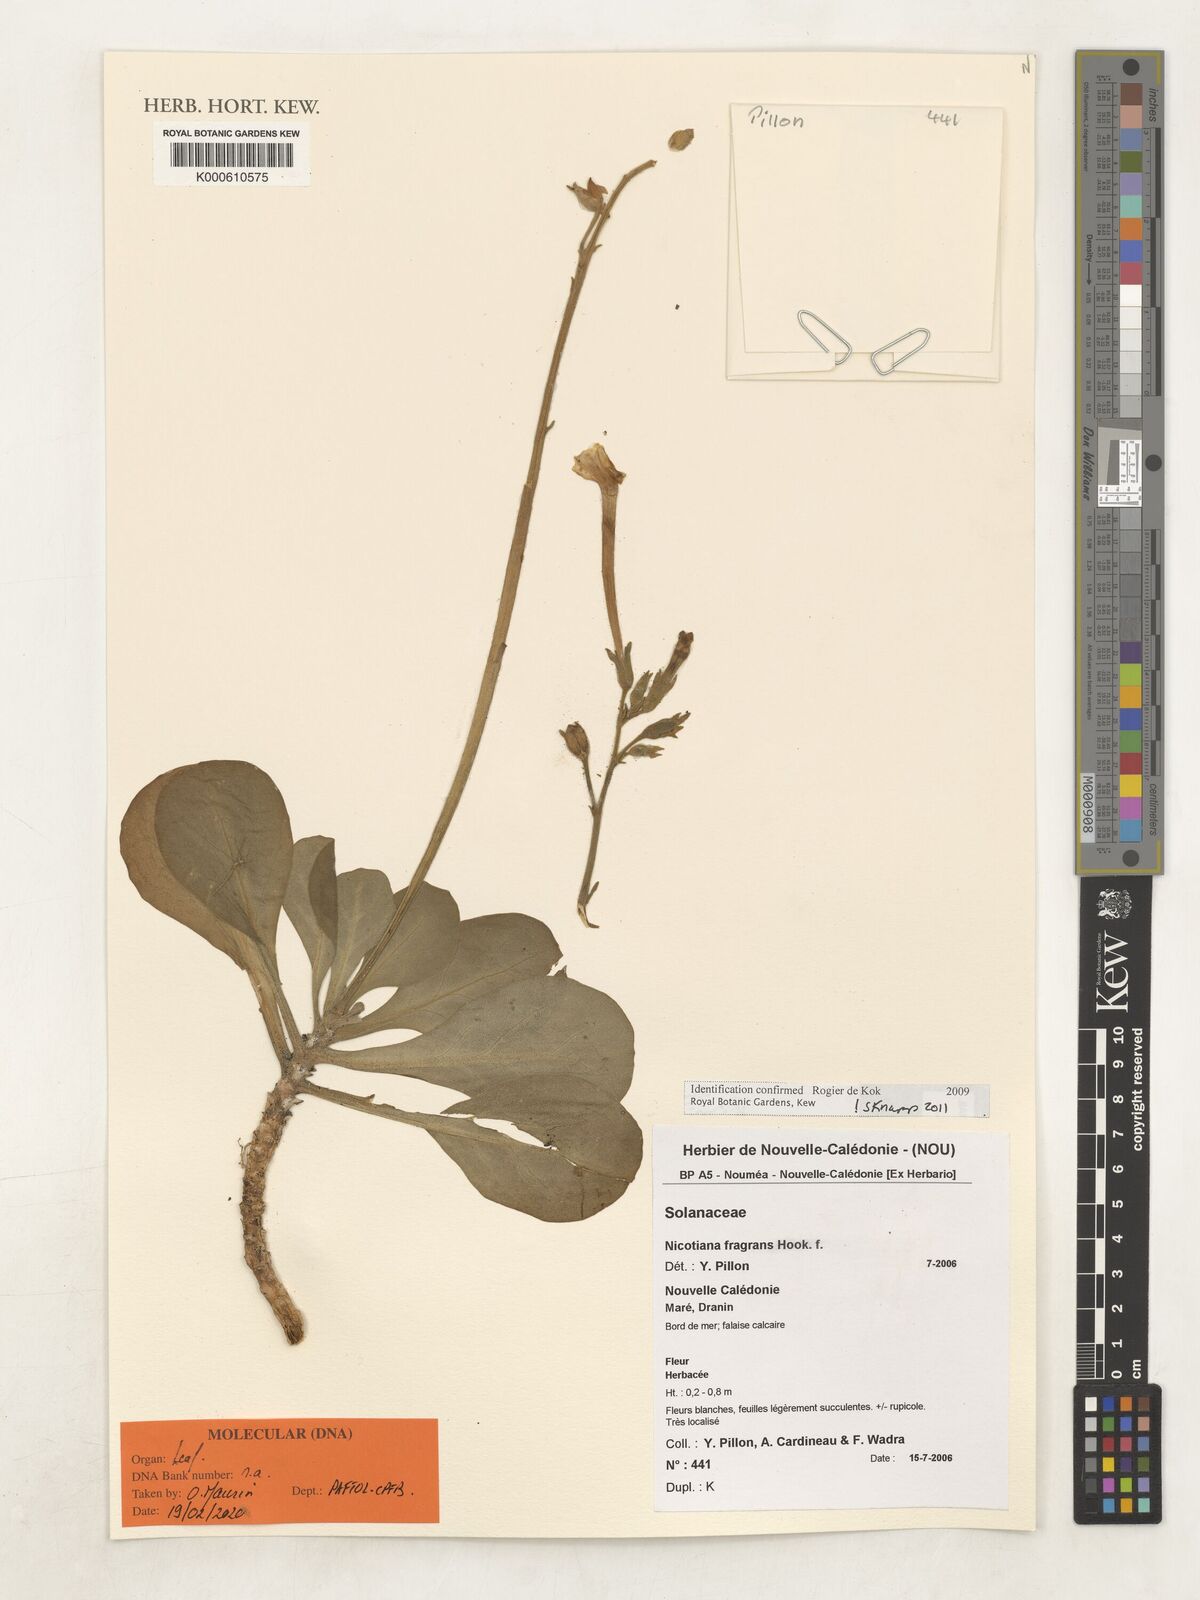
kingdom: Plantae
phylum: Tracheophyta
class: Magnoliopsida
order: Solanales
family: Solanaceae
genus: Nicotiana
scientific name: Nicotiana fragrans
